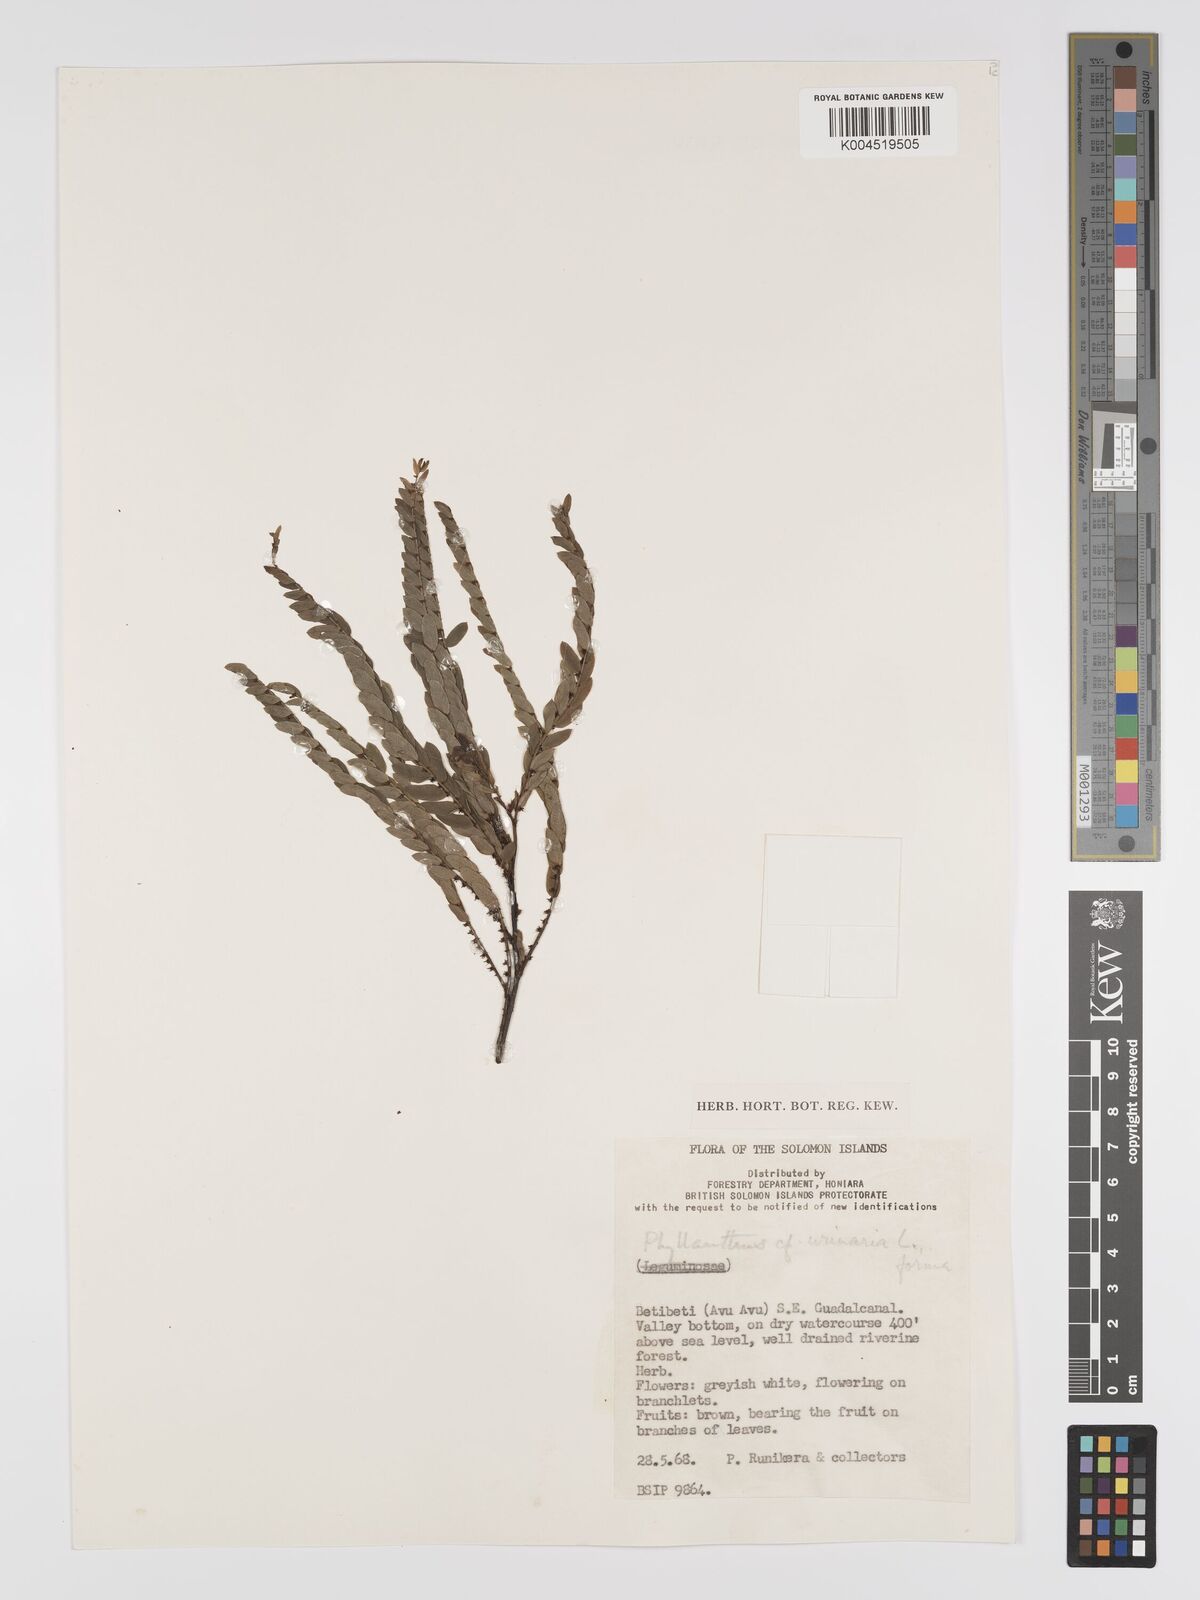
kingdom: Plantae
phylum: Tracheophyta
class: Magnoliopsida
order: Malpighiales
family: Phyllanthaceae
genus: Phyllanthus
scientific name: Phyllanthus urinaria
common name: Chamber bitter
